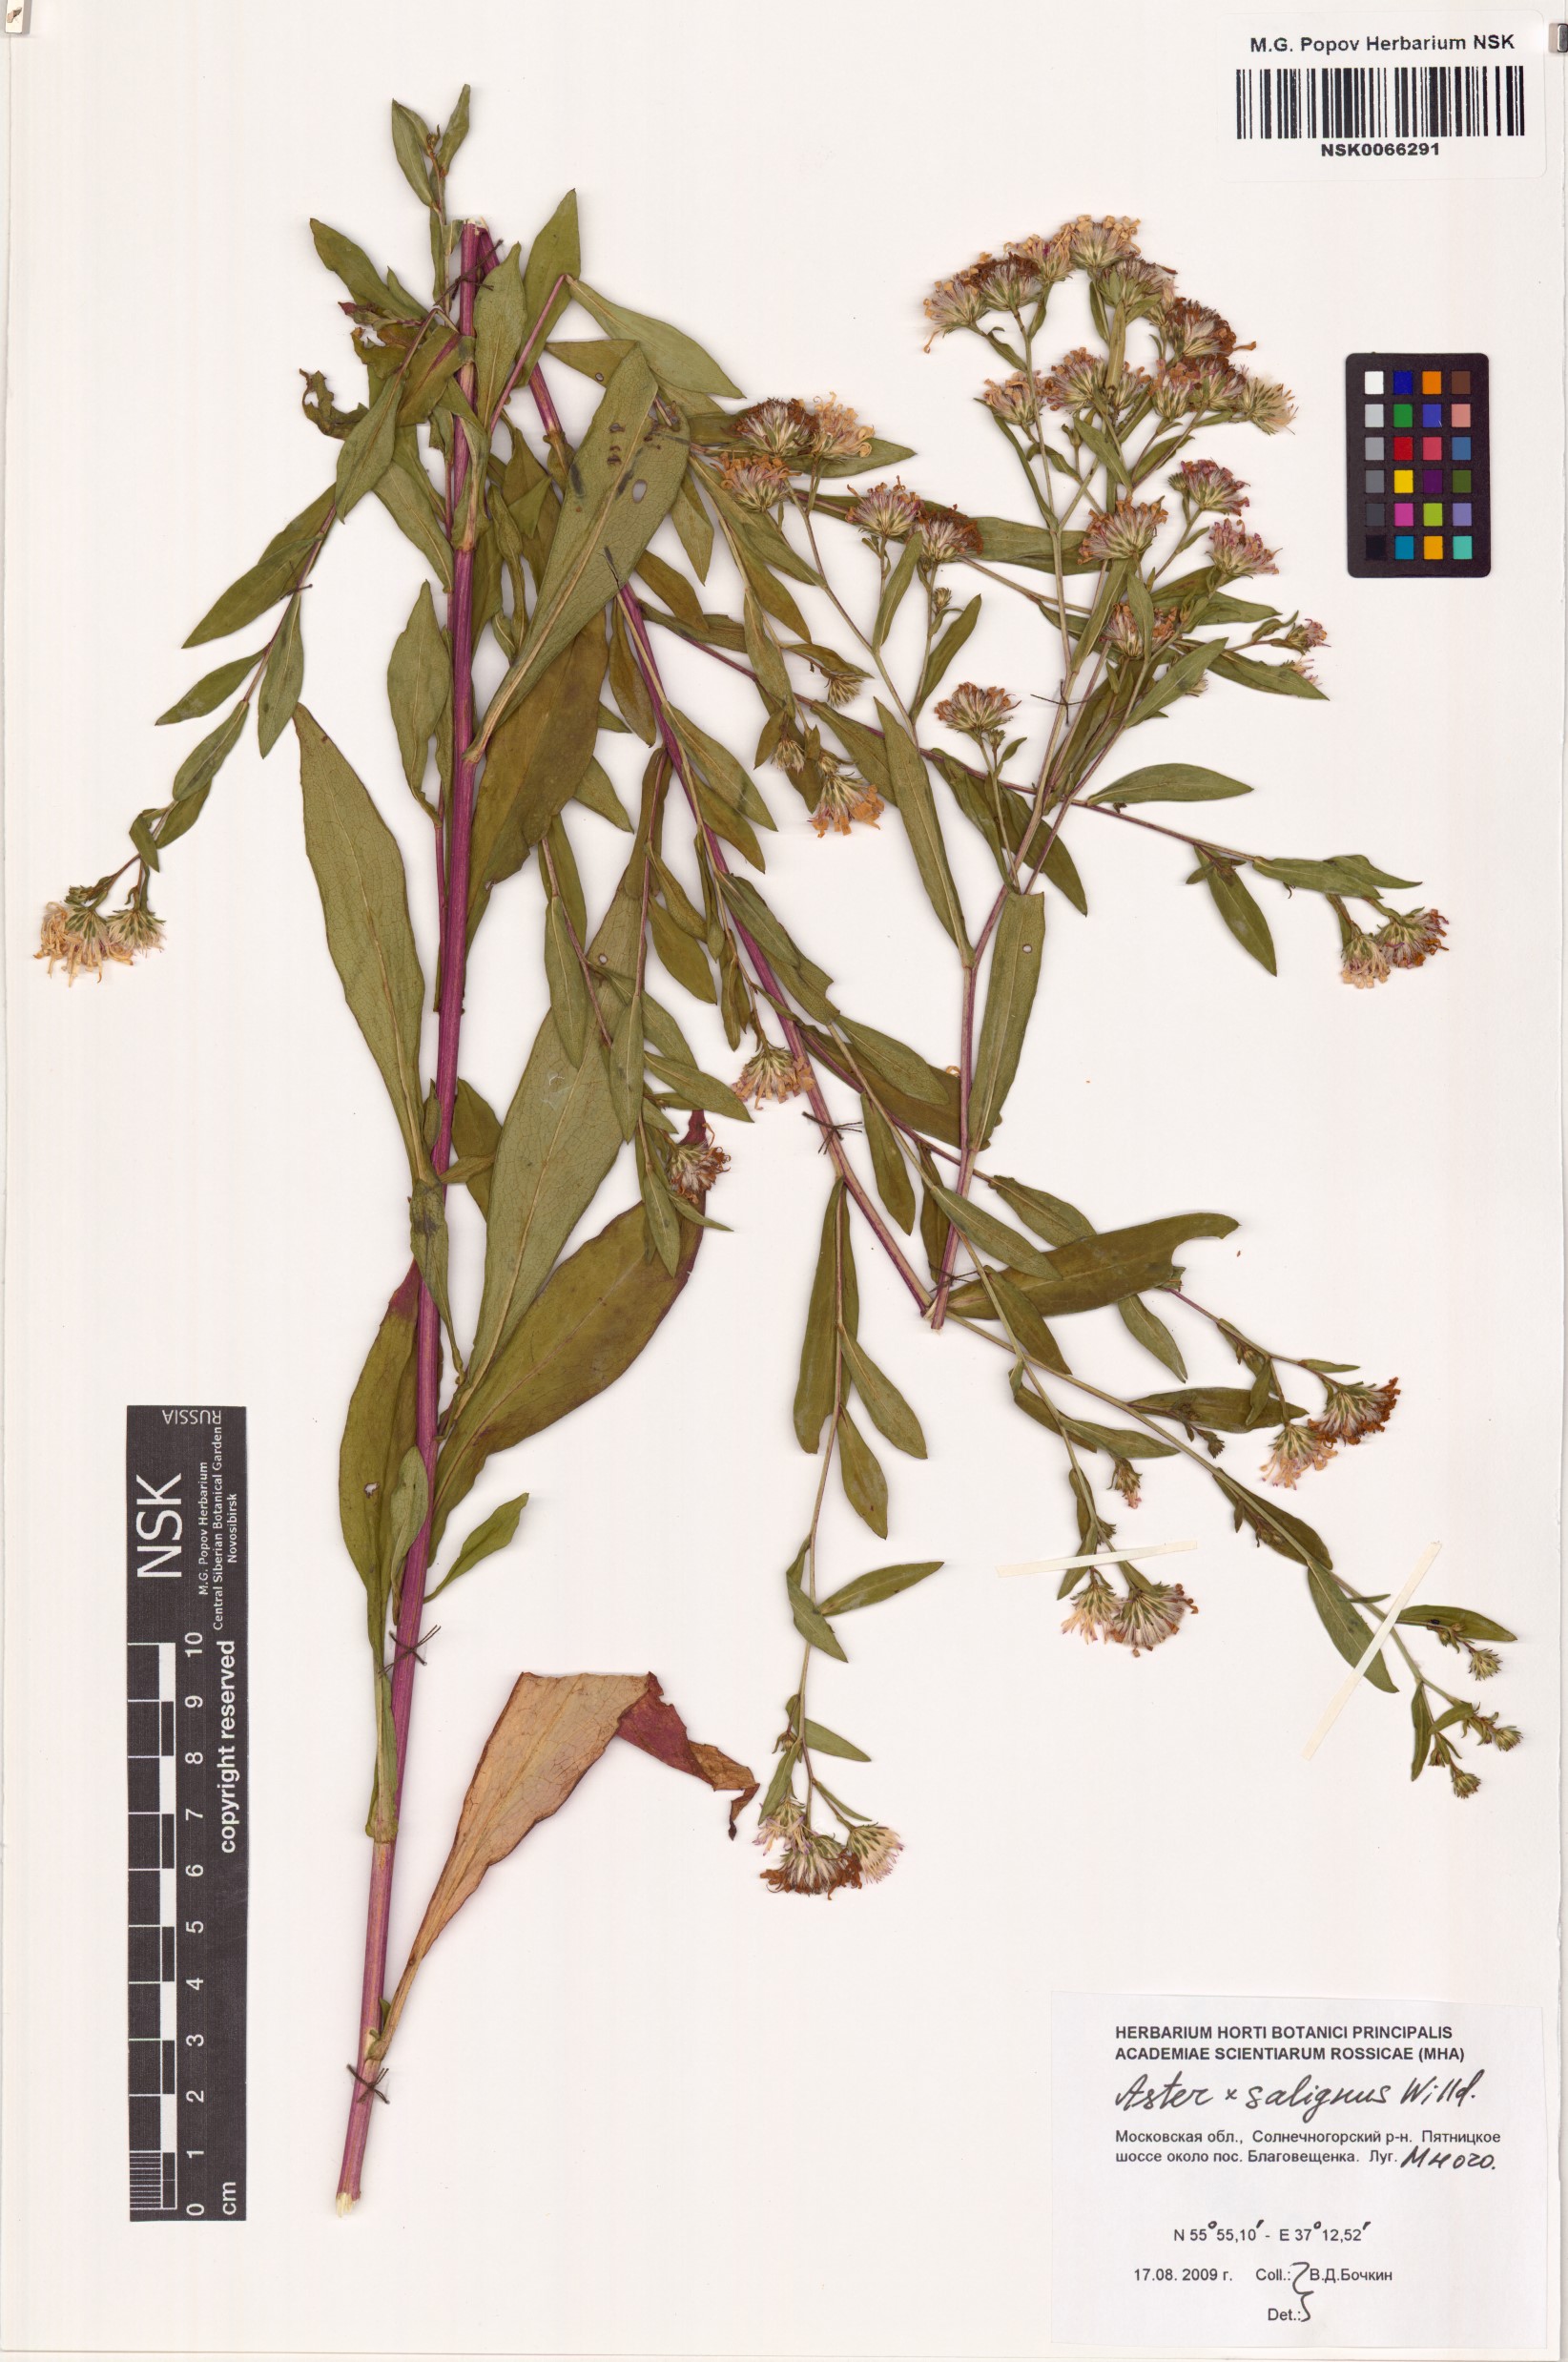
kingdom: Plantae
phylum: Tracheophyta
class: Magnoliopsida
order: Asterales
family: Asteraceae
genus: Symphyotrichum
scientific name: Symphyotrichum salignum
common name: Common michaelmas daisy
